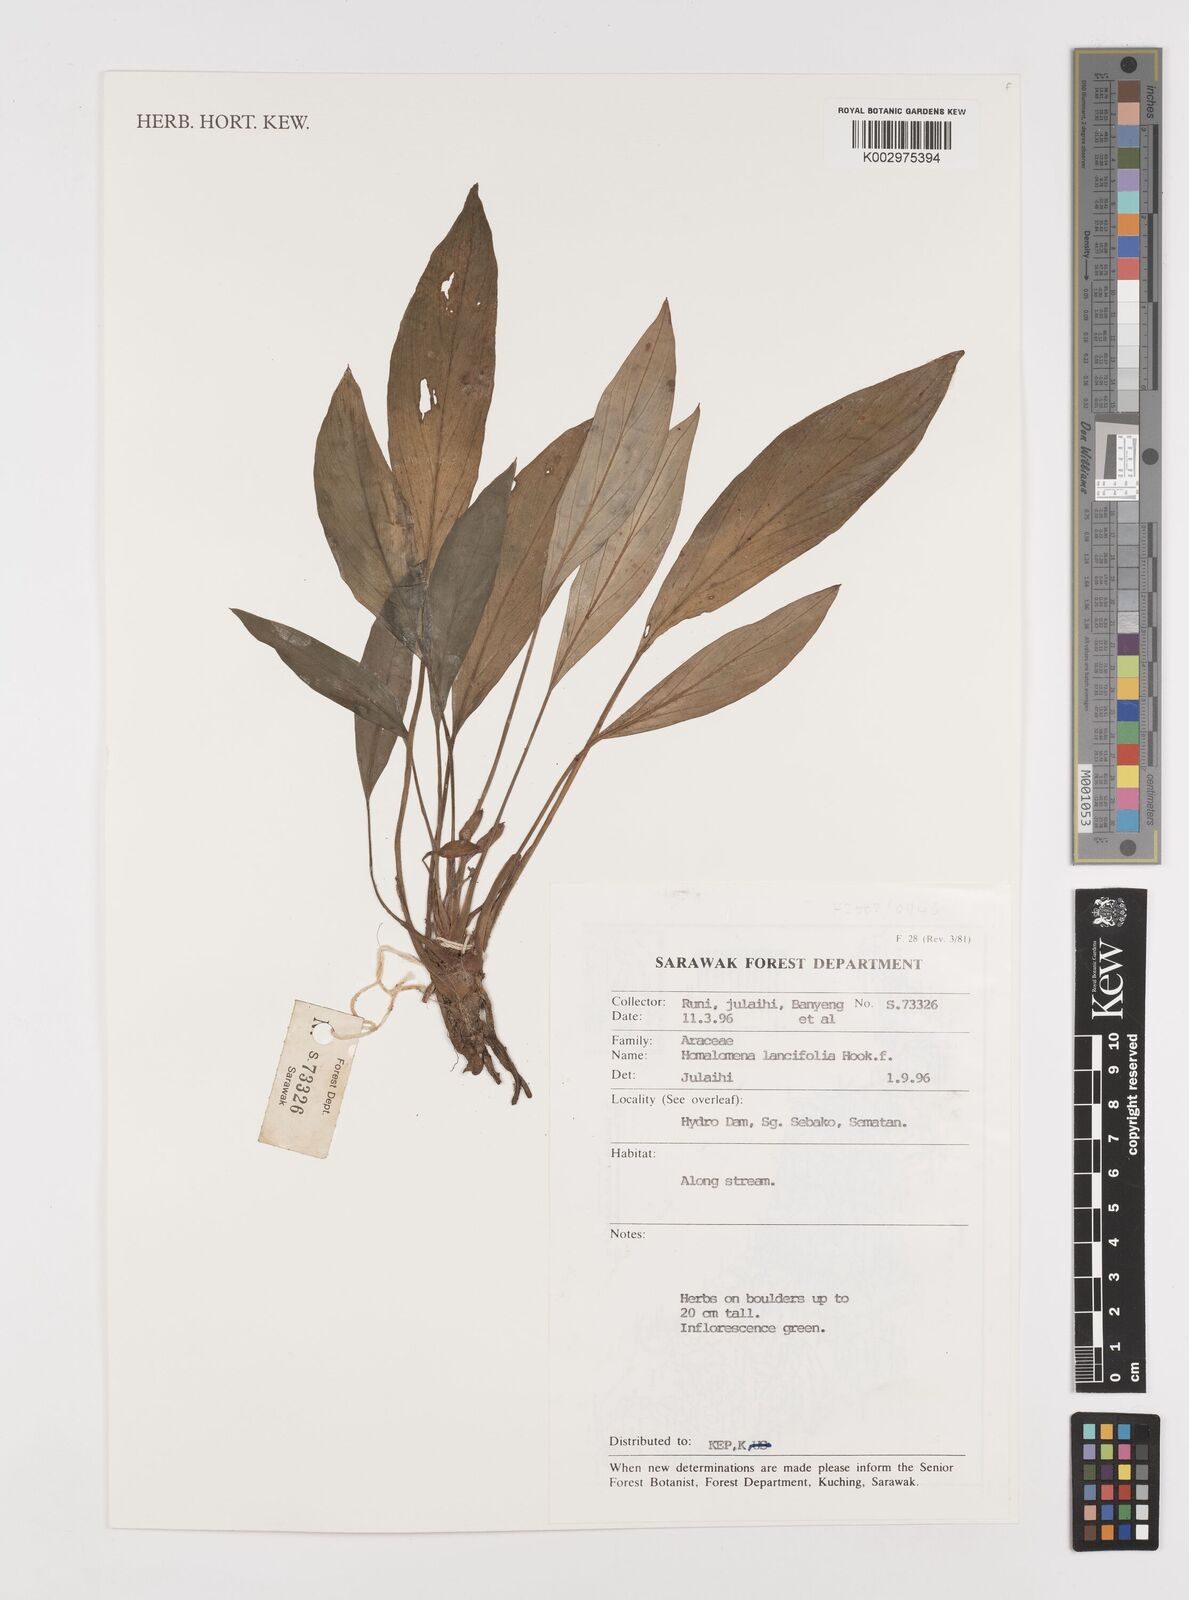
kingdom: Plantae
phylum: Tracheophyta
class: Liliopsida
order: Alismatales
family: Araceae
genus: Homalomena
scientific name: Homalomena lancifolia
